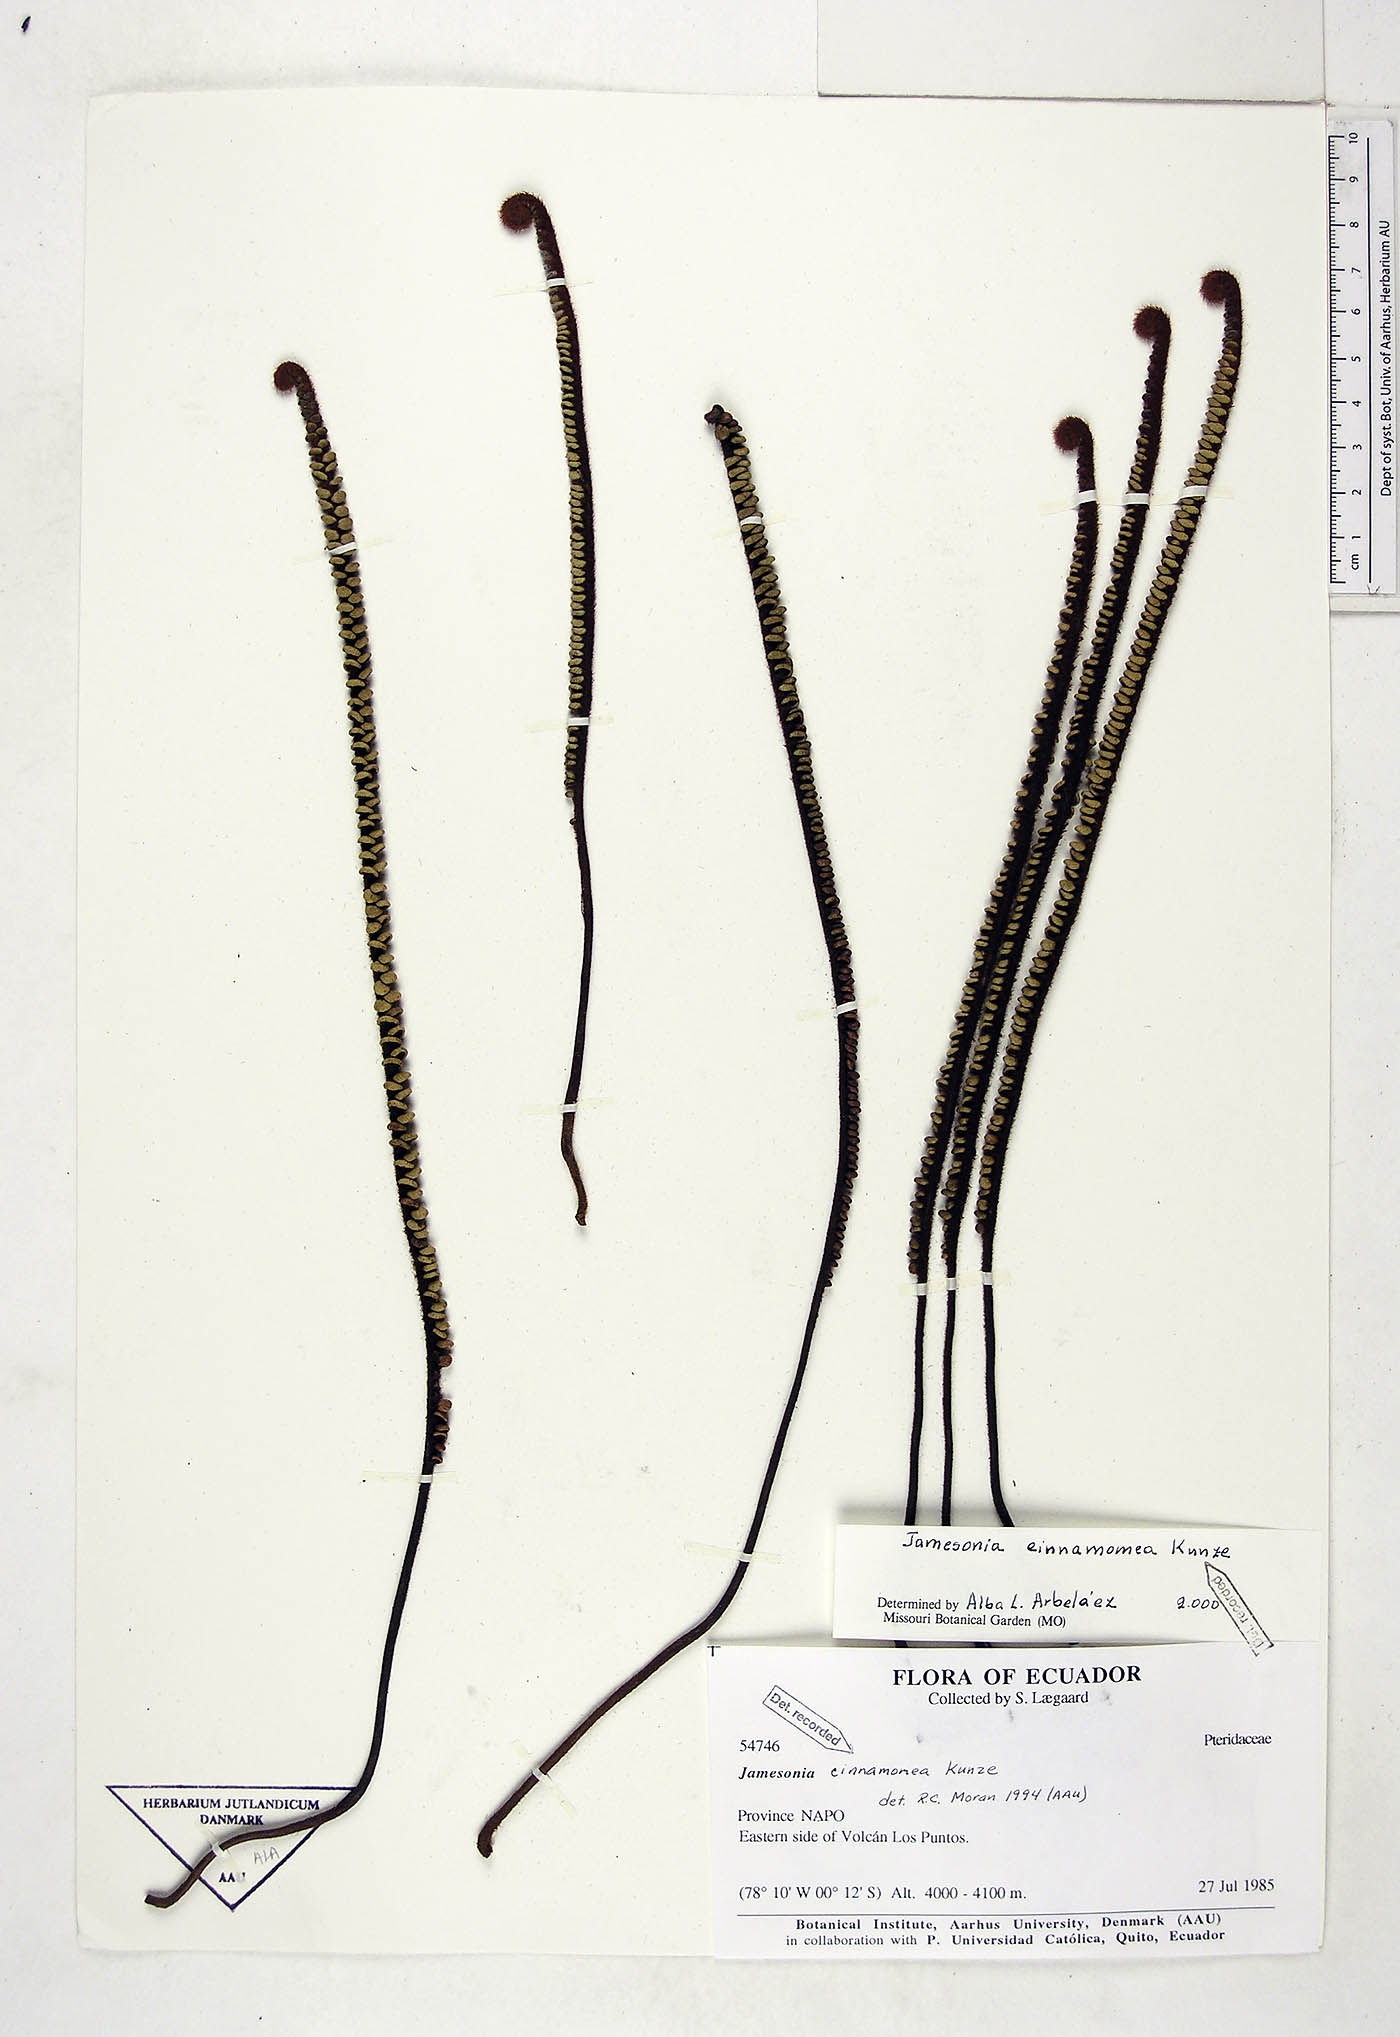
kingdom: Plantae
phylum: Tracheophyta
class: Polypodiopsida
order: Polypodiales
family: Pteridaceae
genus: Jamesonia
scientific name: Jamesonia cinnamomea
